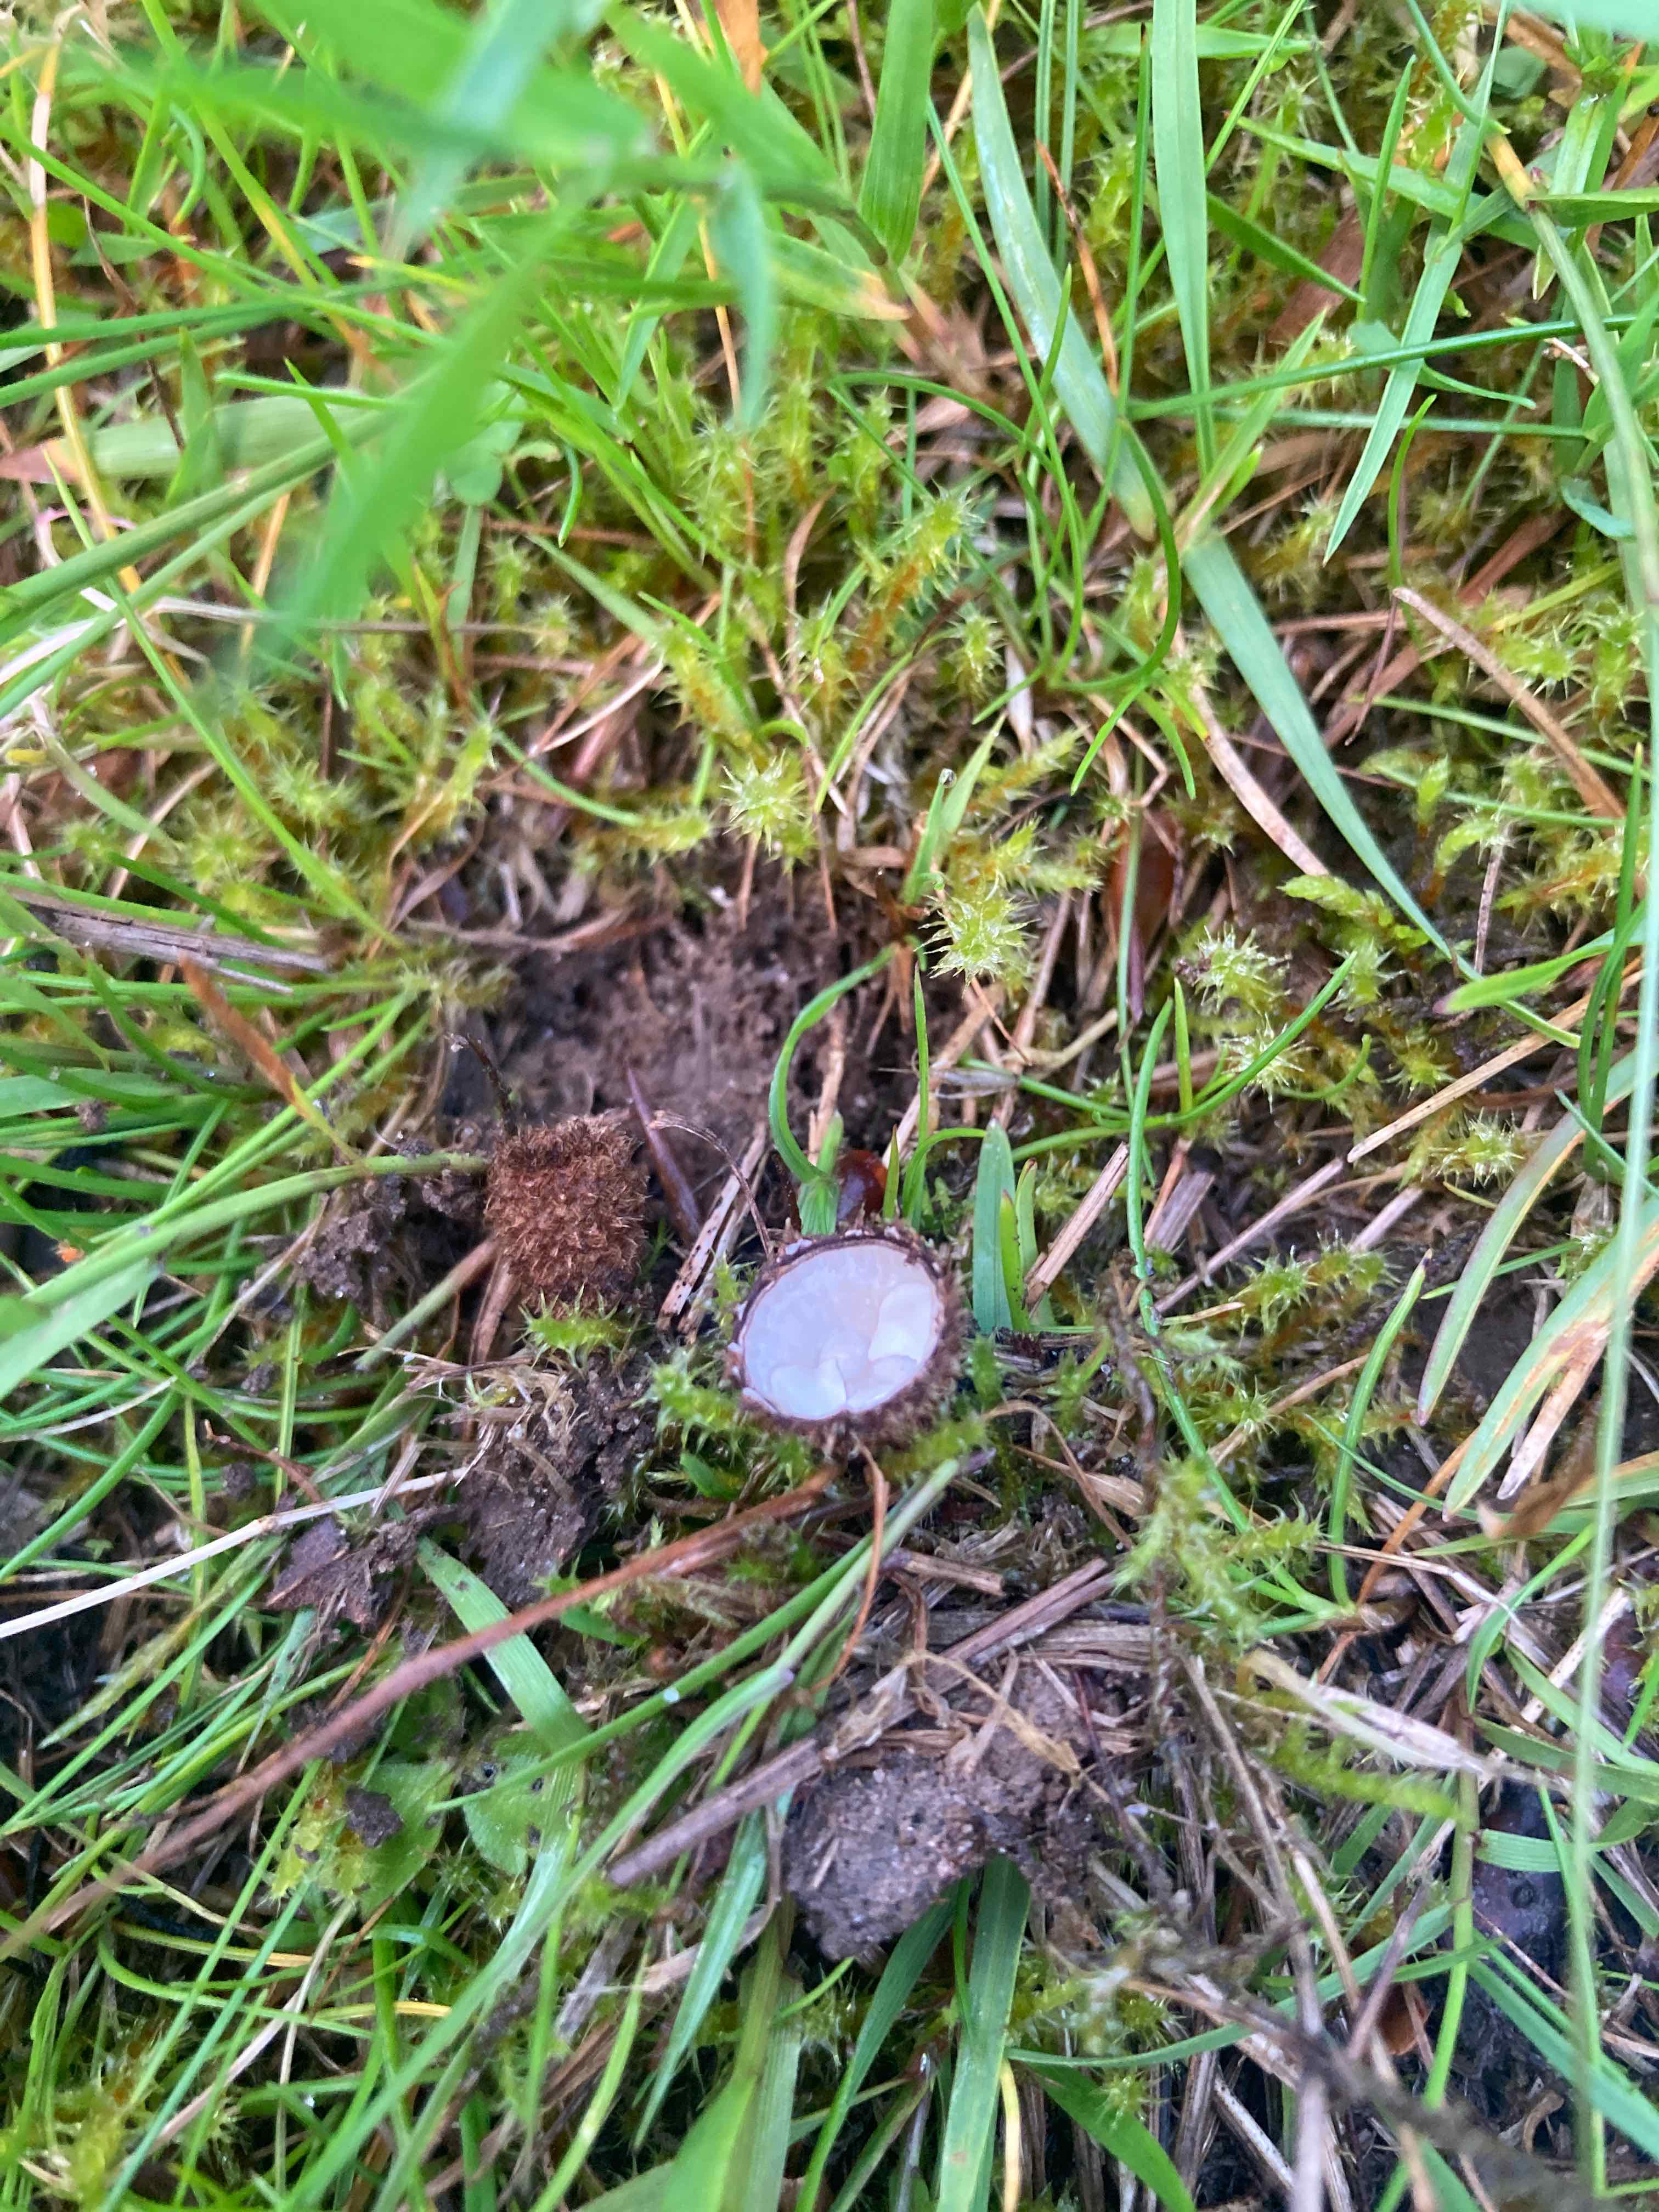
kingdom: Fungi
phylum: Basidiomycota
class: Agaricomycetes
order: Agaricales
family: Agaricaceae
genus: Cyathus
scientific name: Cyathus striatus
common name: stribet redesvamp
